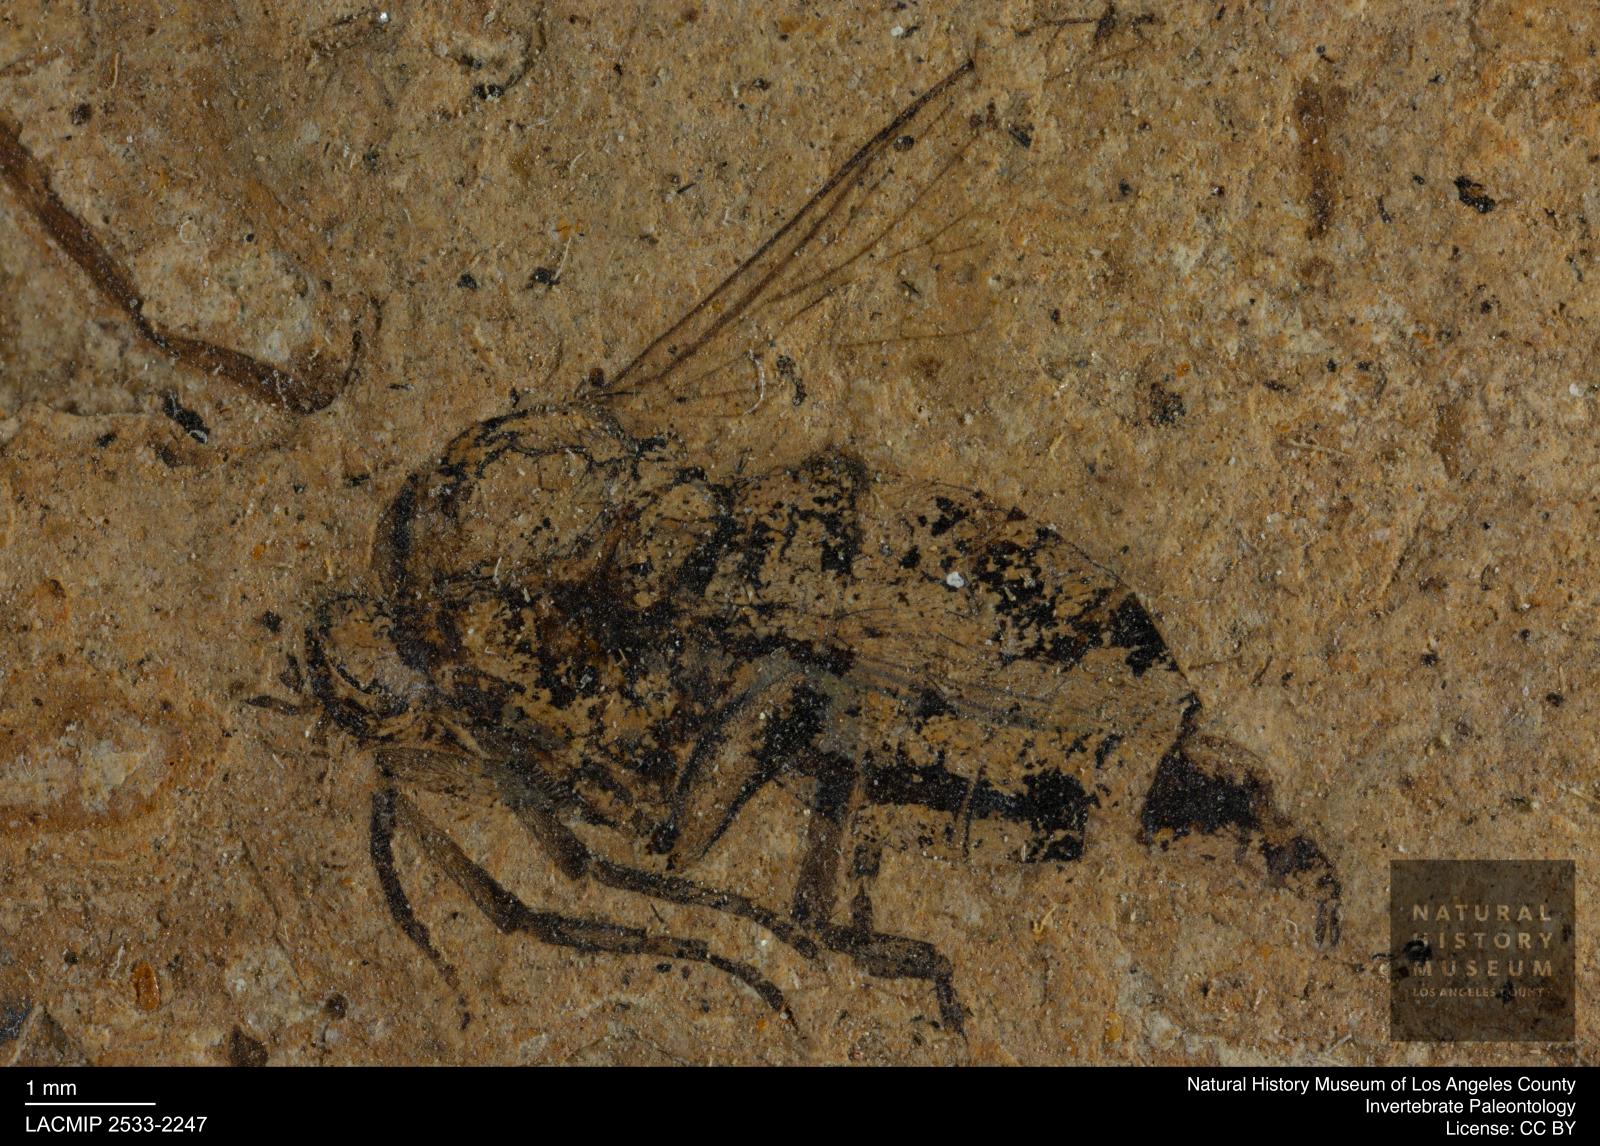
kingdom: Animalia
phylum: Arthropoda
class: Insecta
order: Diptera
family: Empididae
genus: Empis
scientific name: Empis melia
